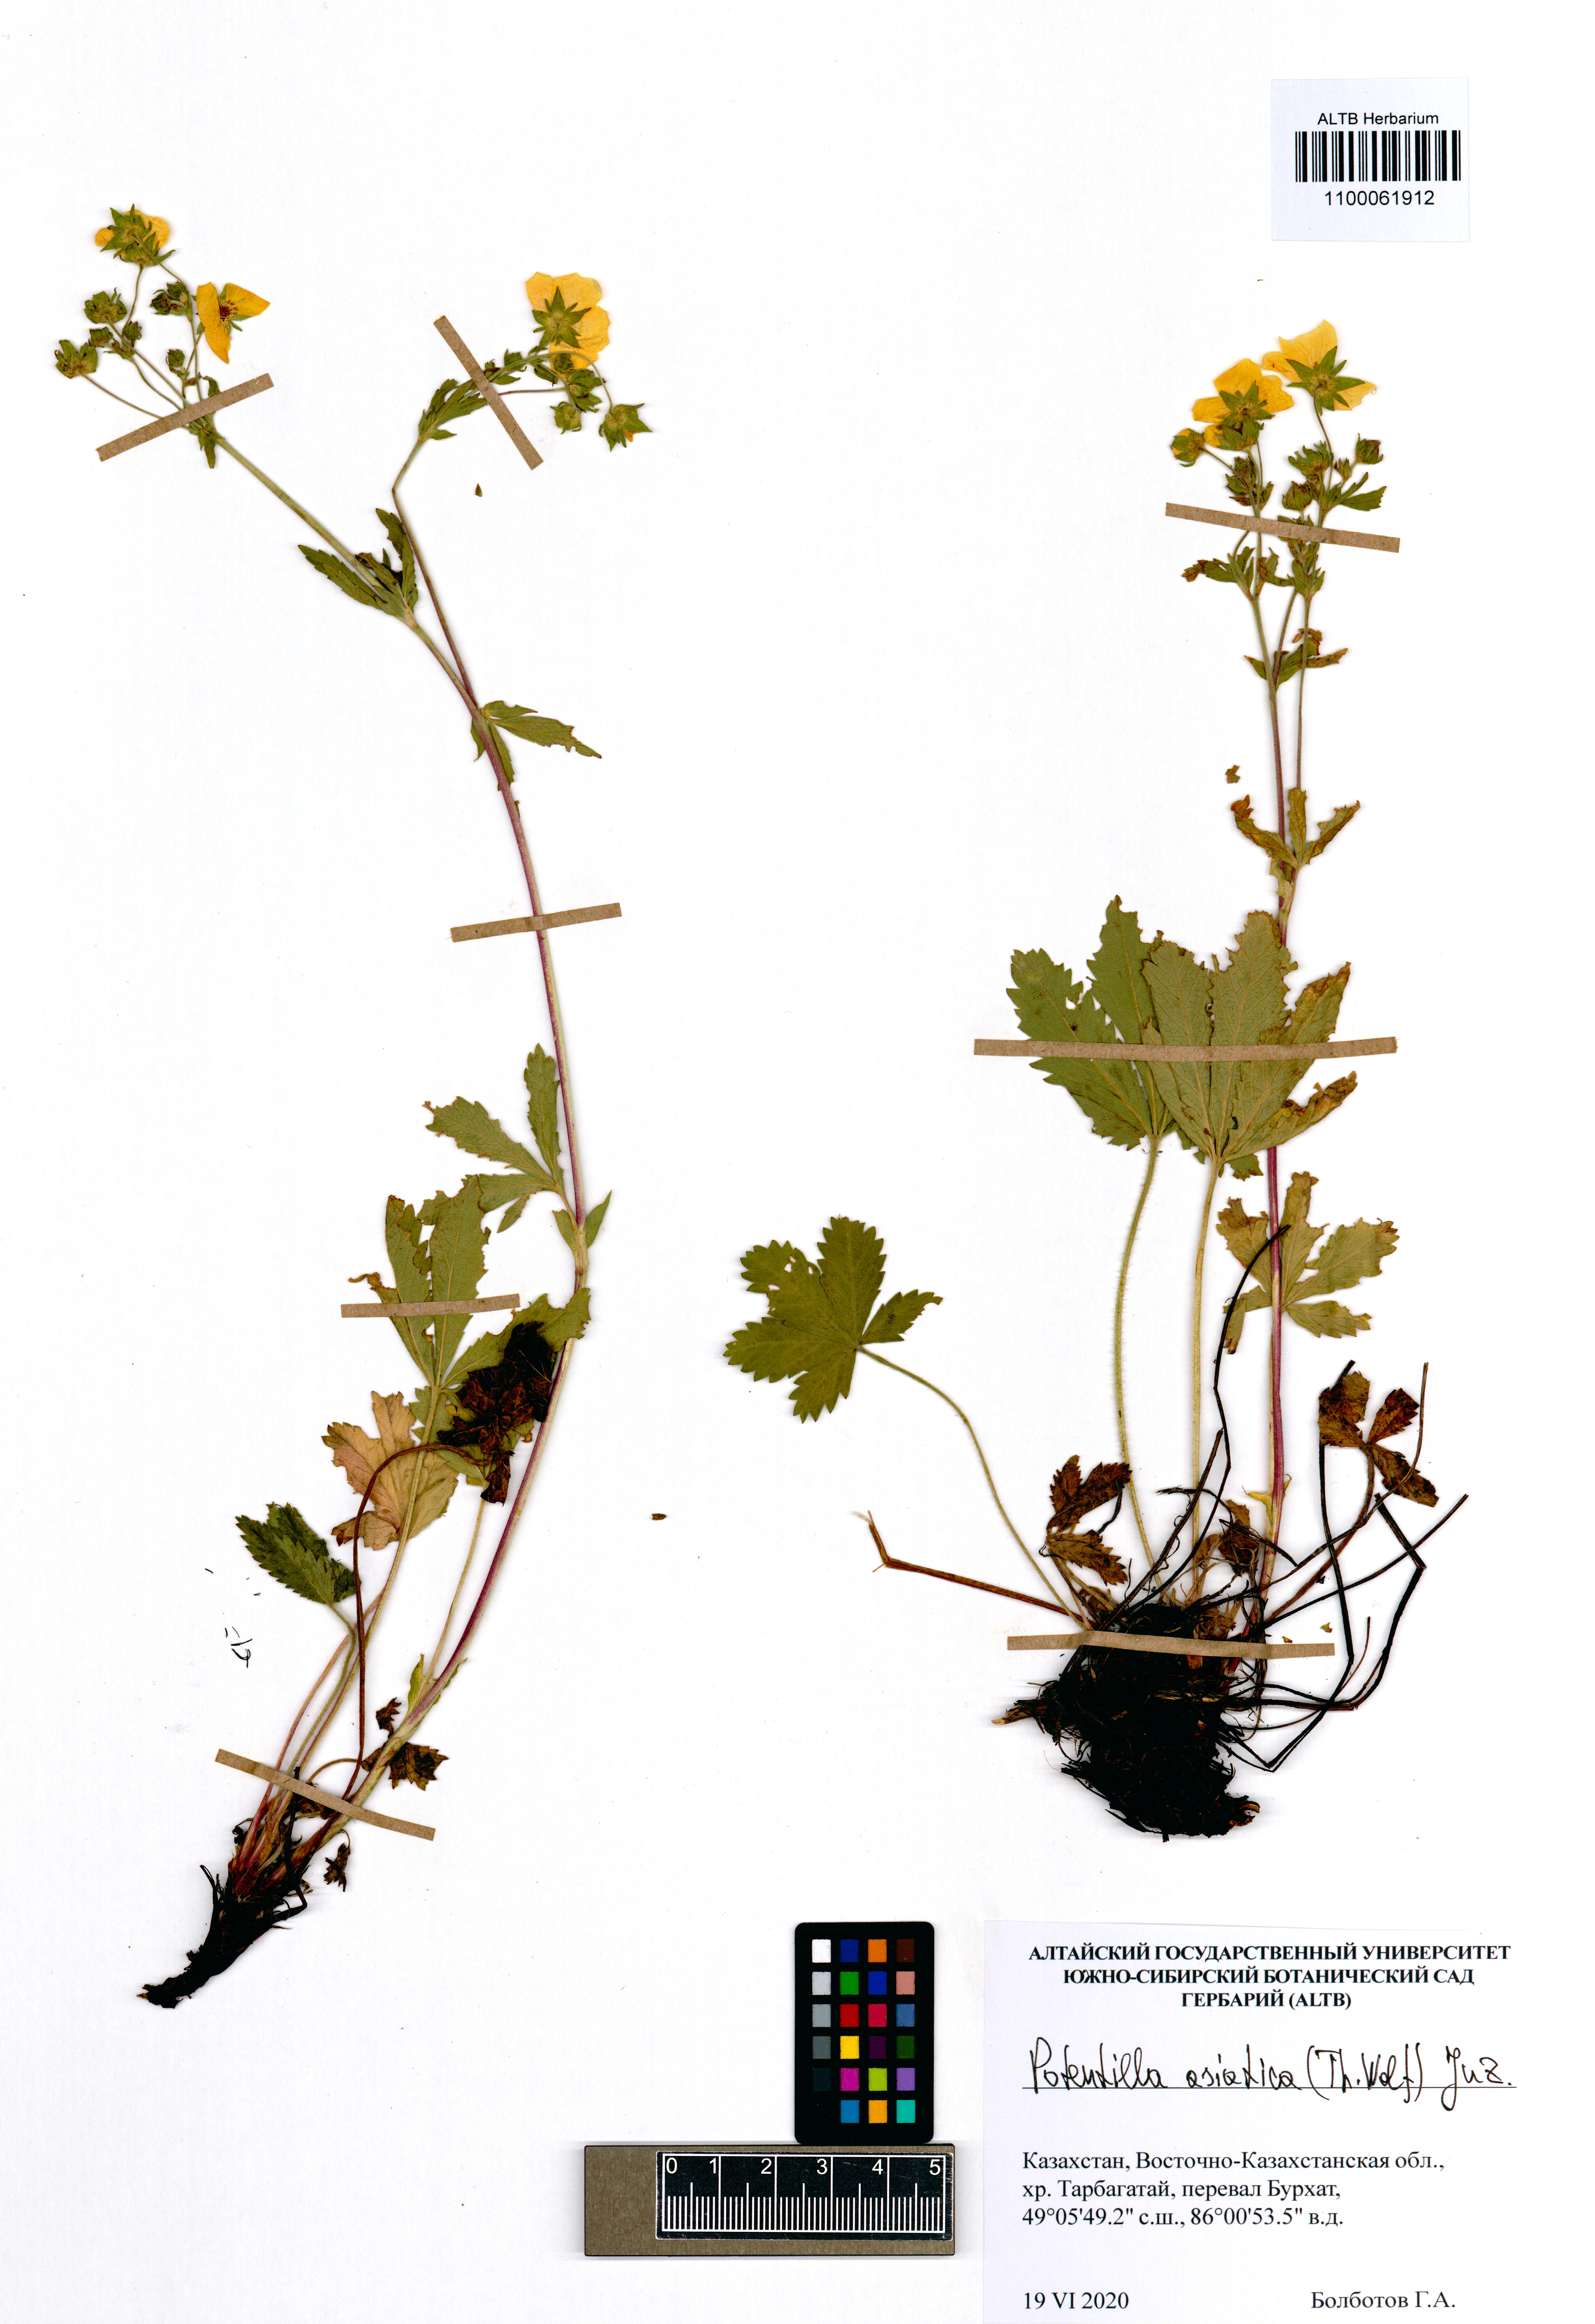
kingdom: Plantae
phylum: Tracheophyta
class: Magnoliopsida
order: Rosales
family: Rosaceae
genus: Potentilla
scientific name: Potentilla asiatica
